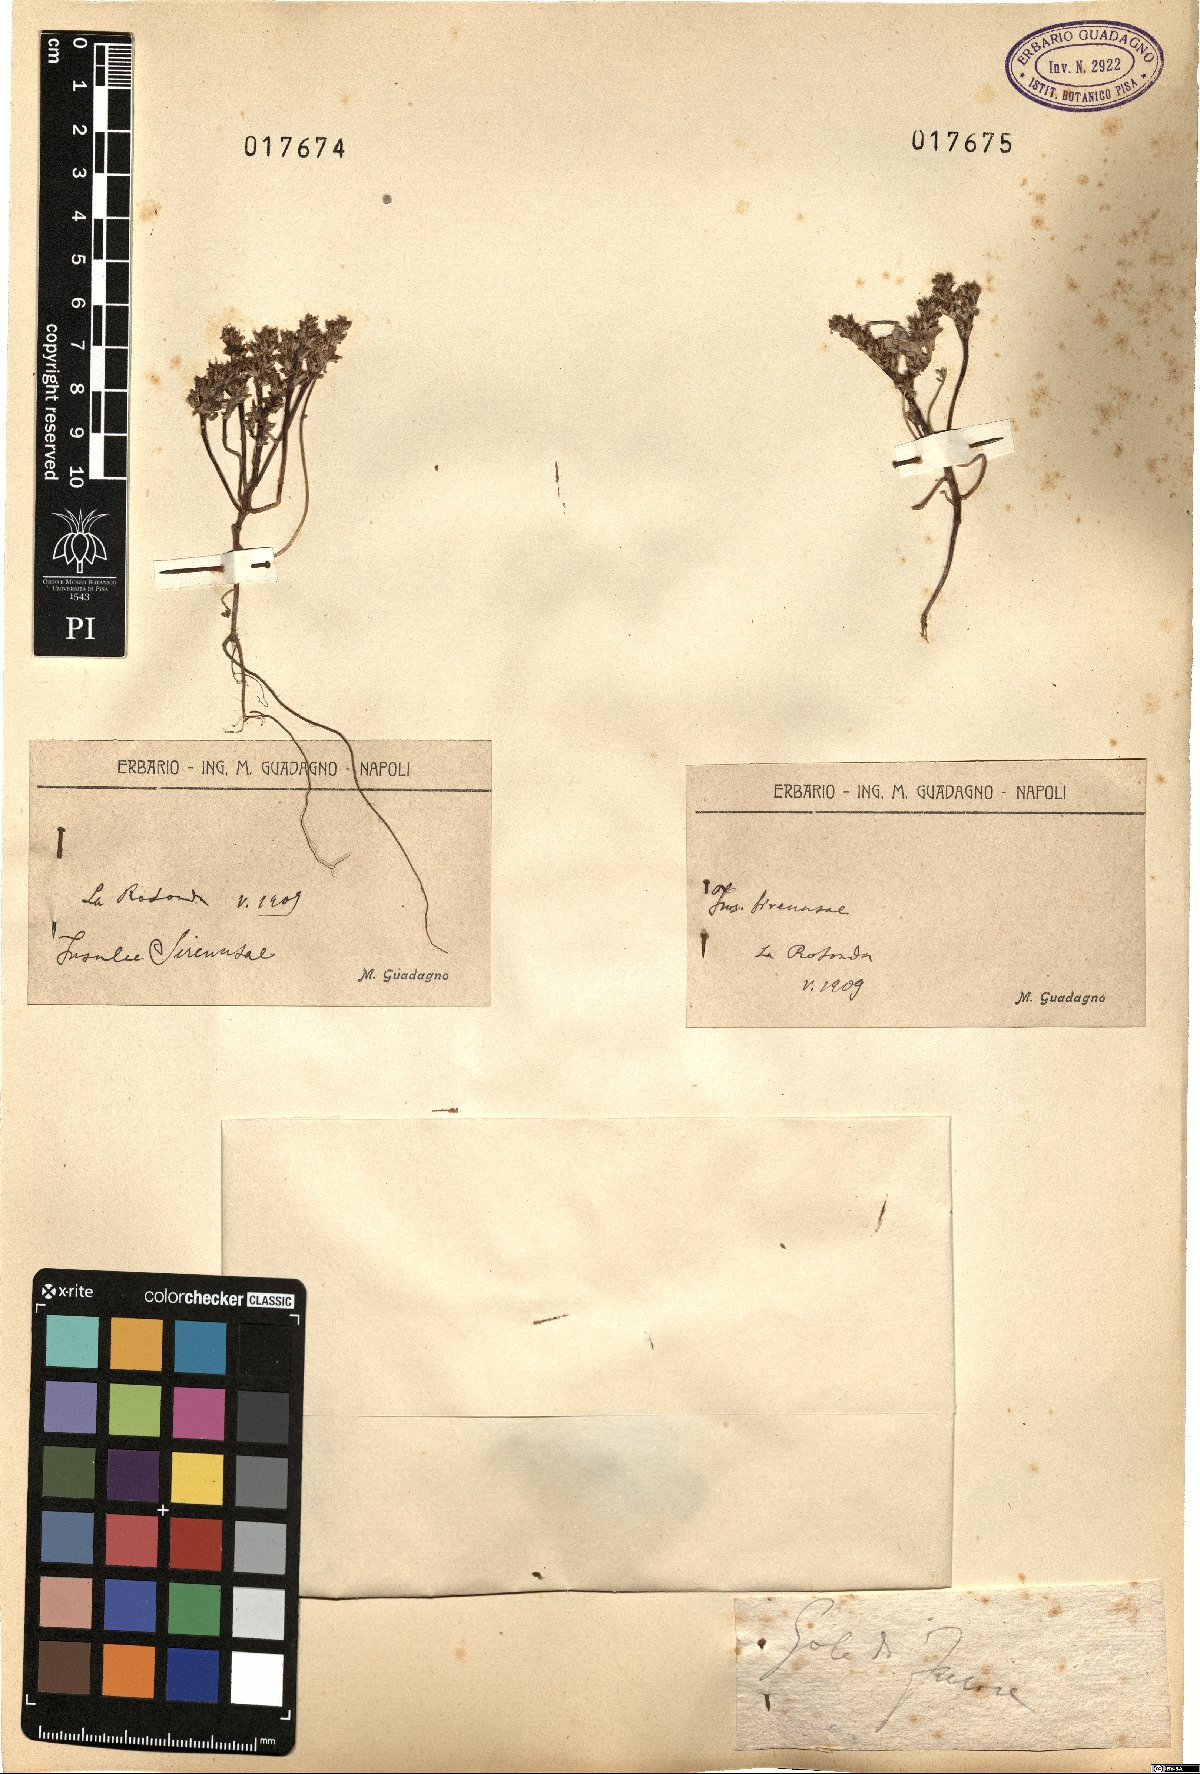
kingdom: Plantae
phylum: Tracheophyta
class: Magnoliopsida
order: Saxifragales
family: Crassulaceae
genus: Sedum
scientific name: Sedum
